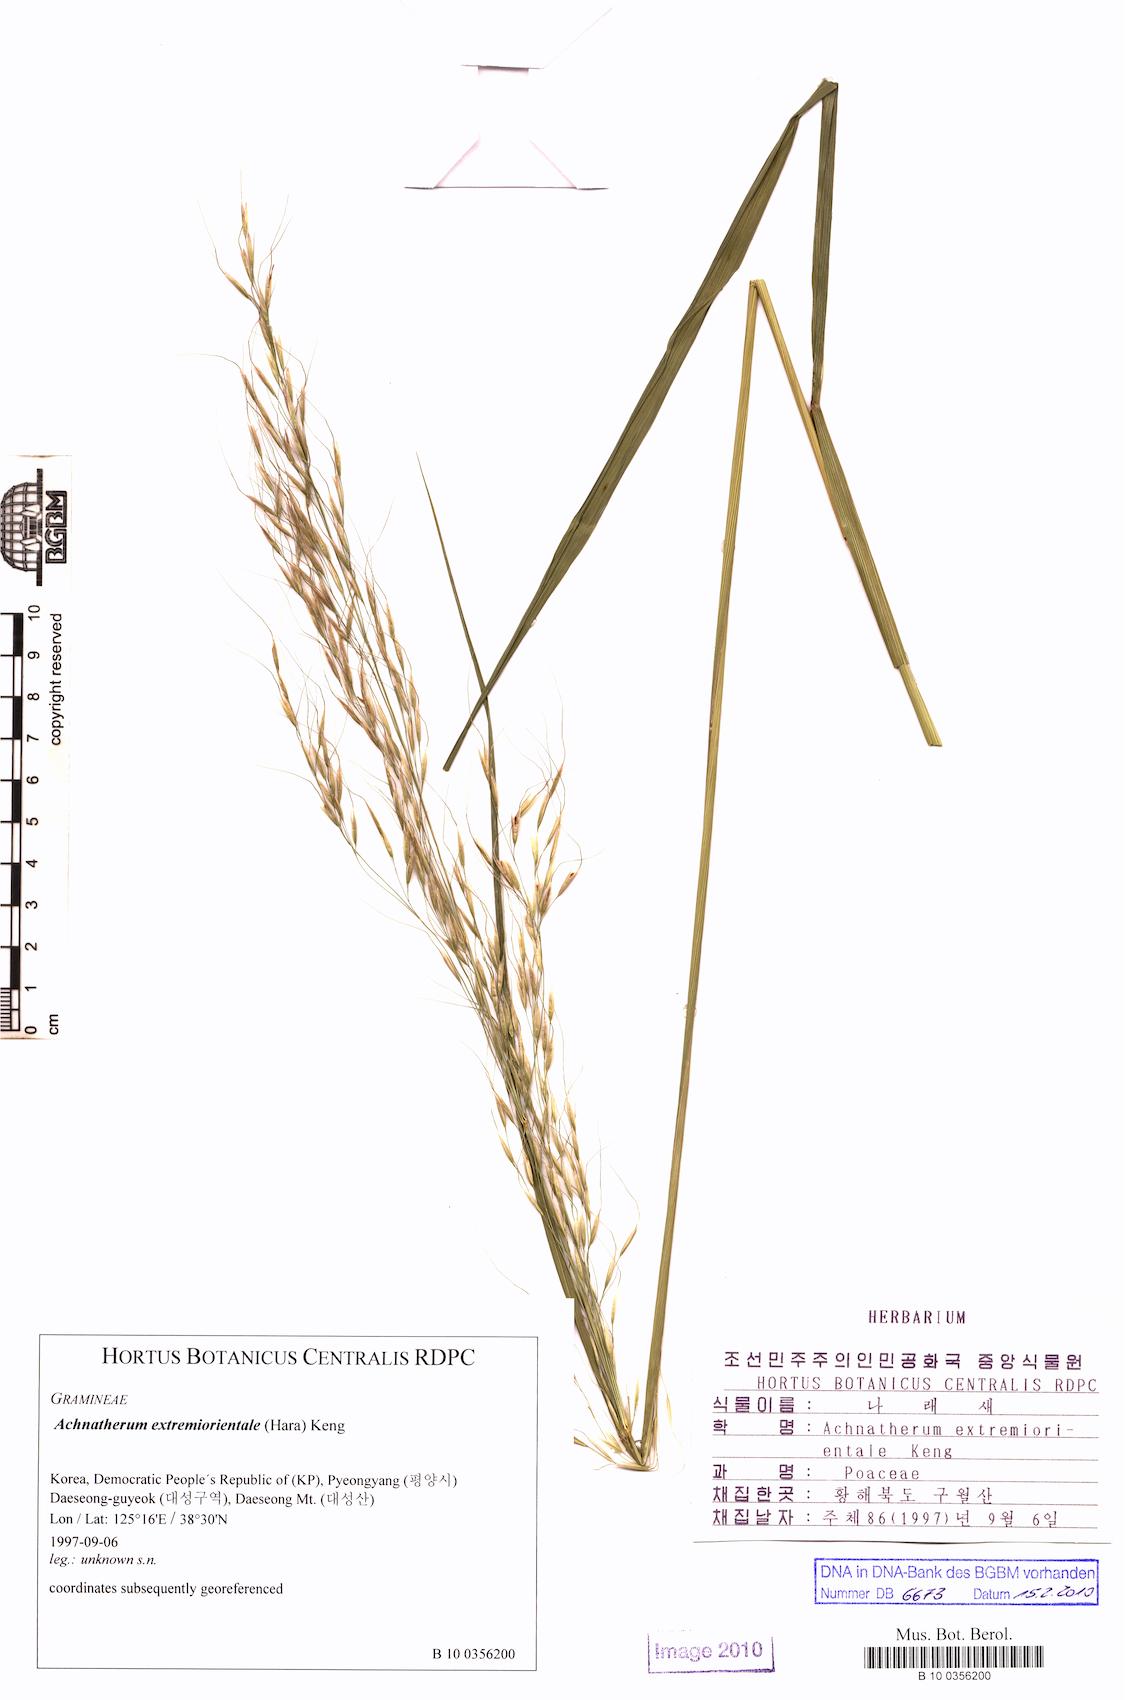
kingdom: Plantae
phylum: Tracheophyta
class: Liliopsida
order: Poales
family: Poaceae
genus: Achnatherum
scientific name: Achnatherum pekinense
